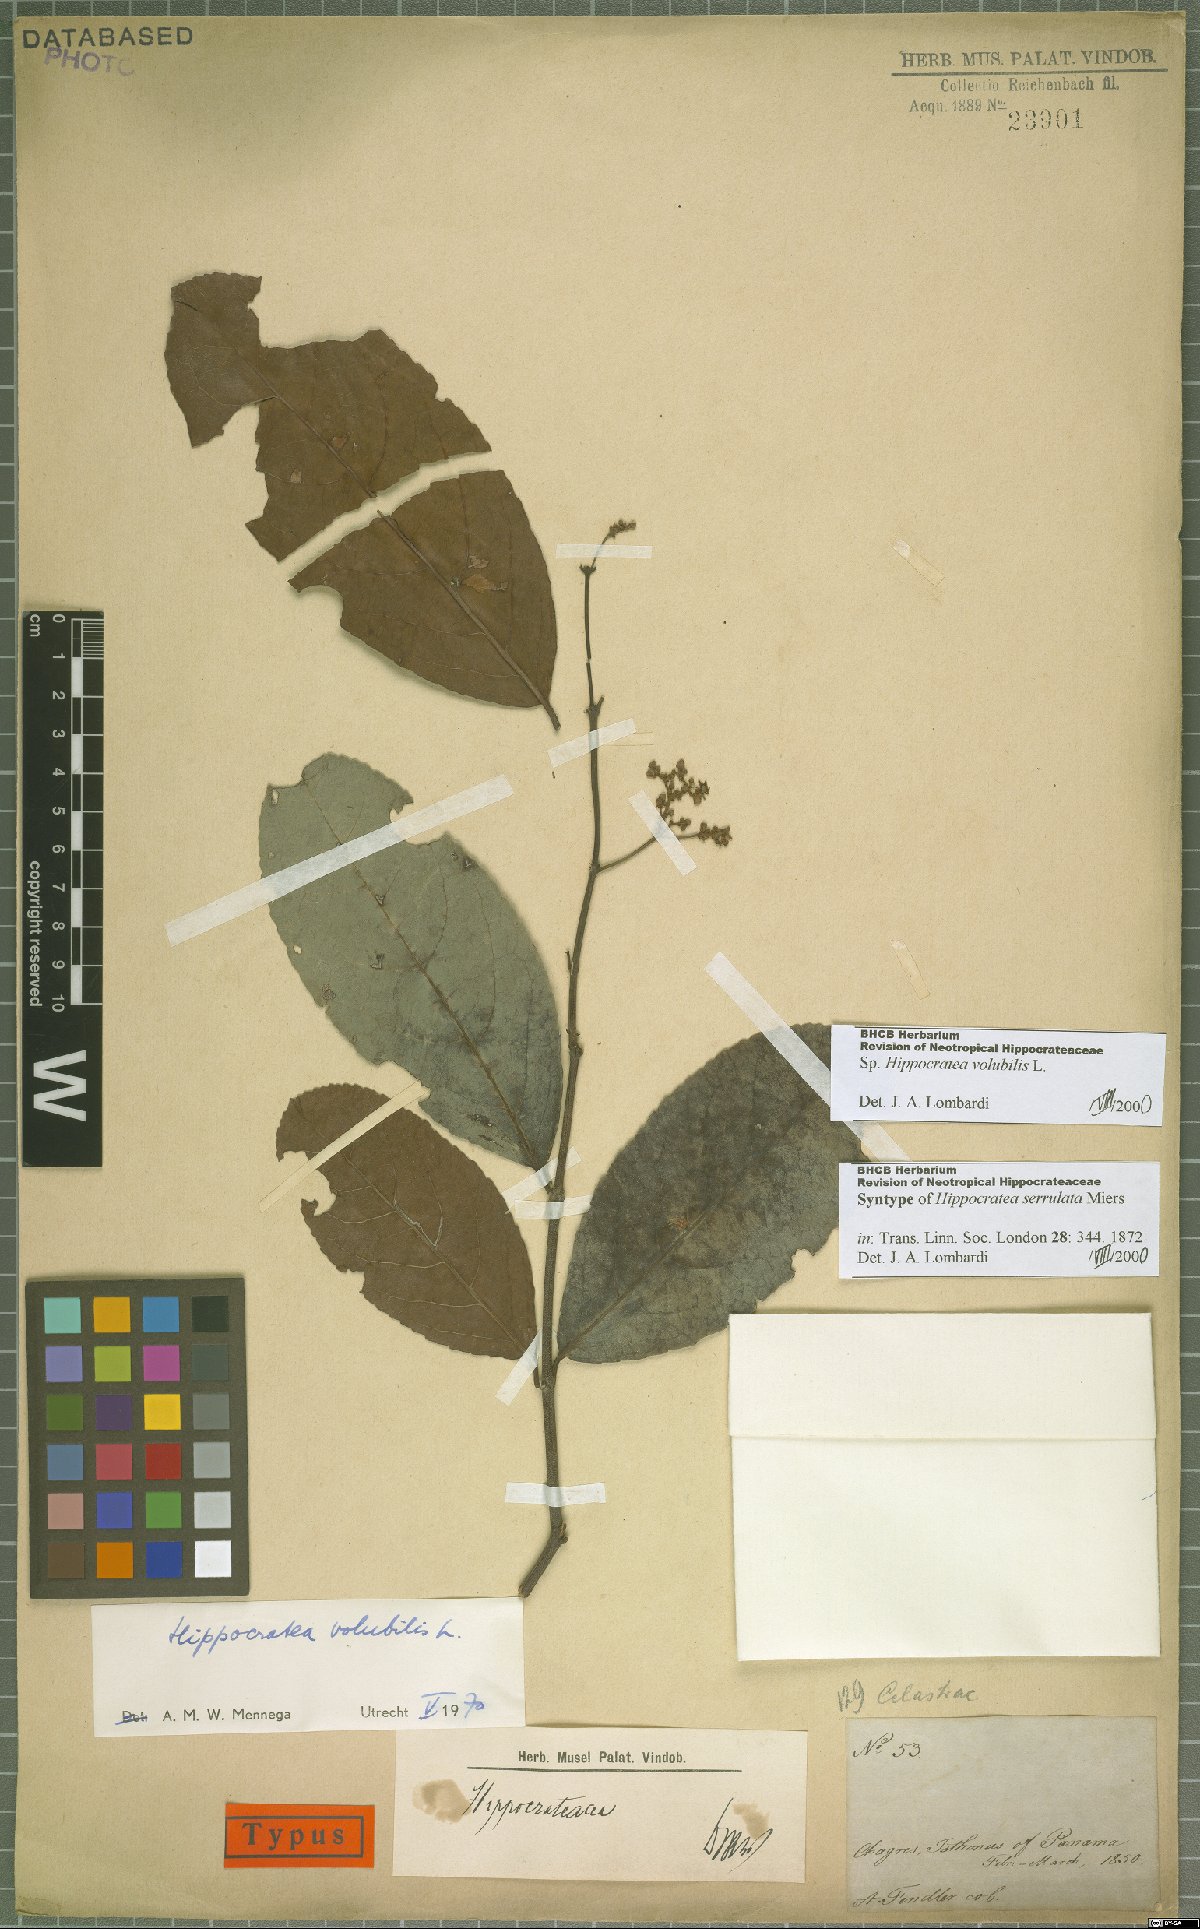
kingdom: Plantae
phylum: Tracheophyta
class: Magnoliopsida
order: Celastrales
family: Celastraceae
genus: Hippocratea
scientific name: Hippocratea volubilis
